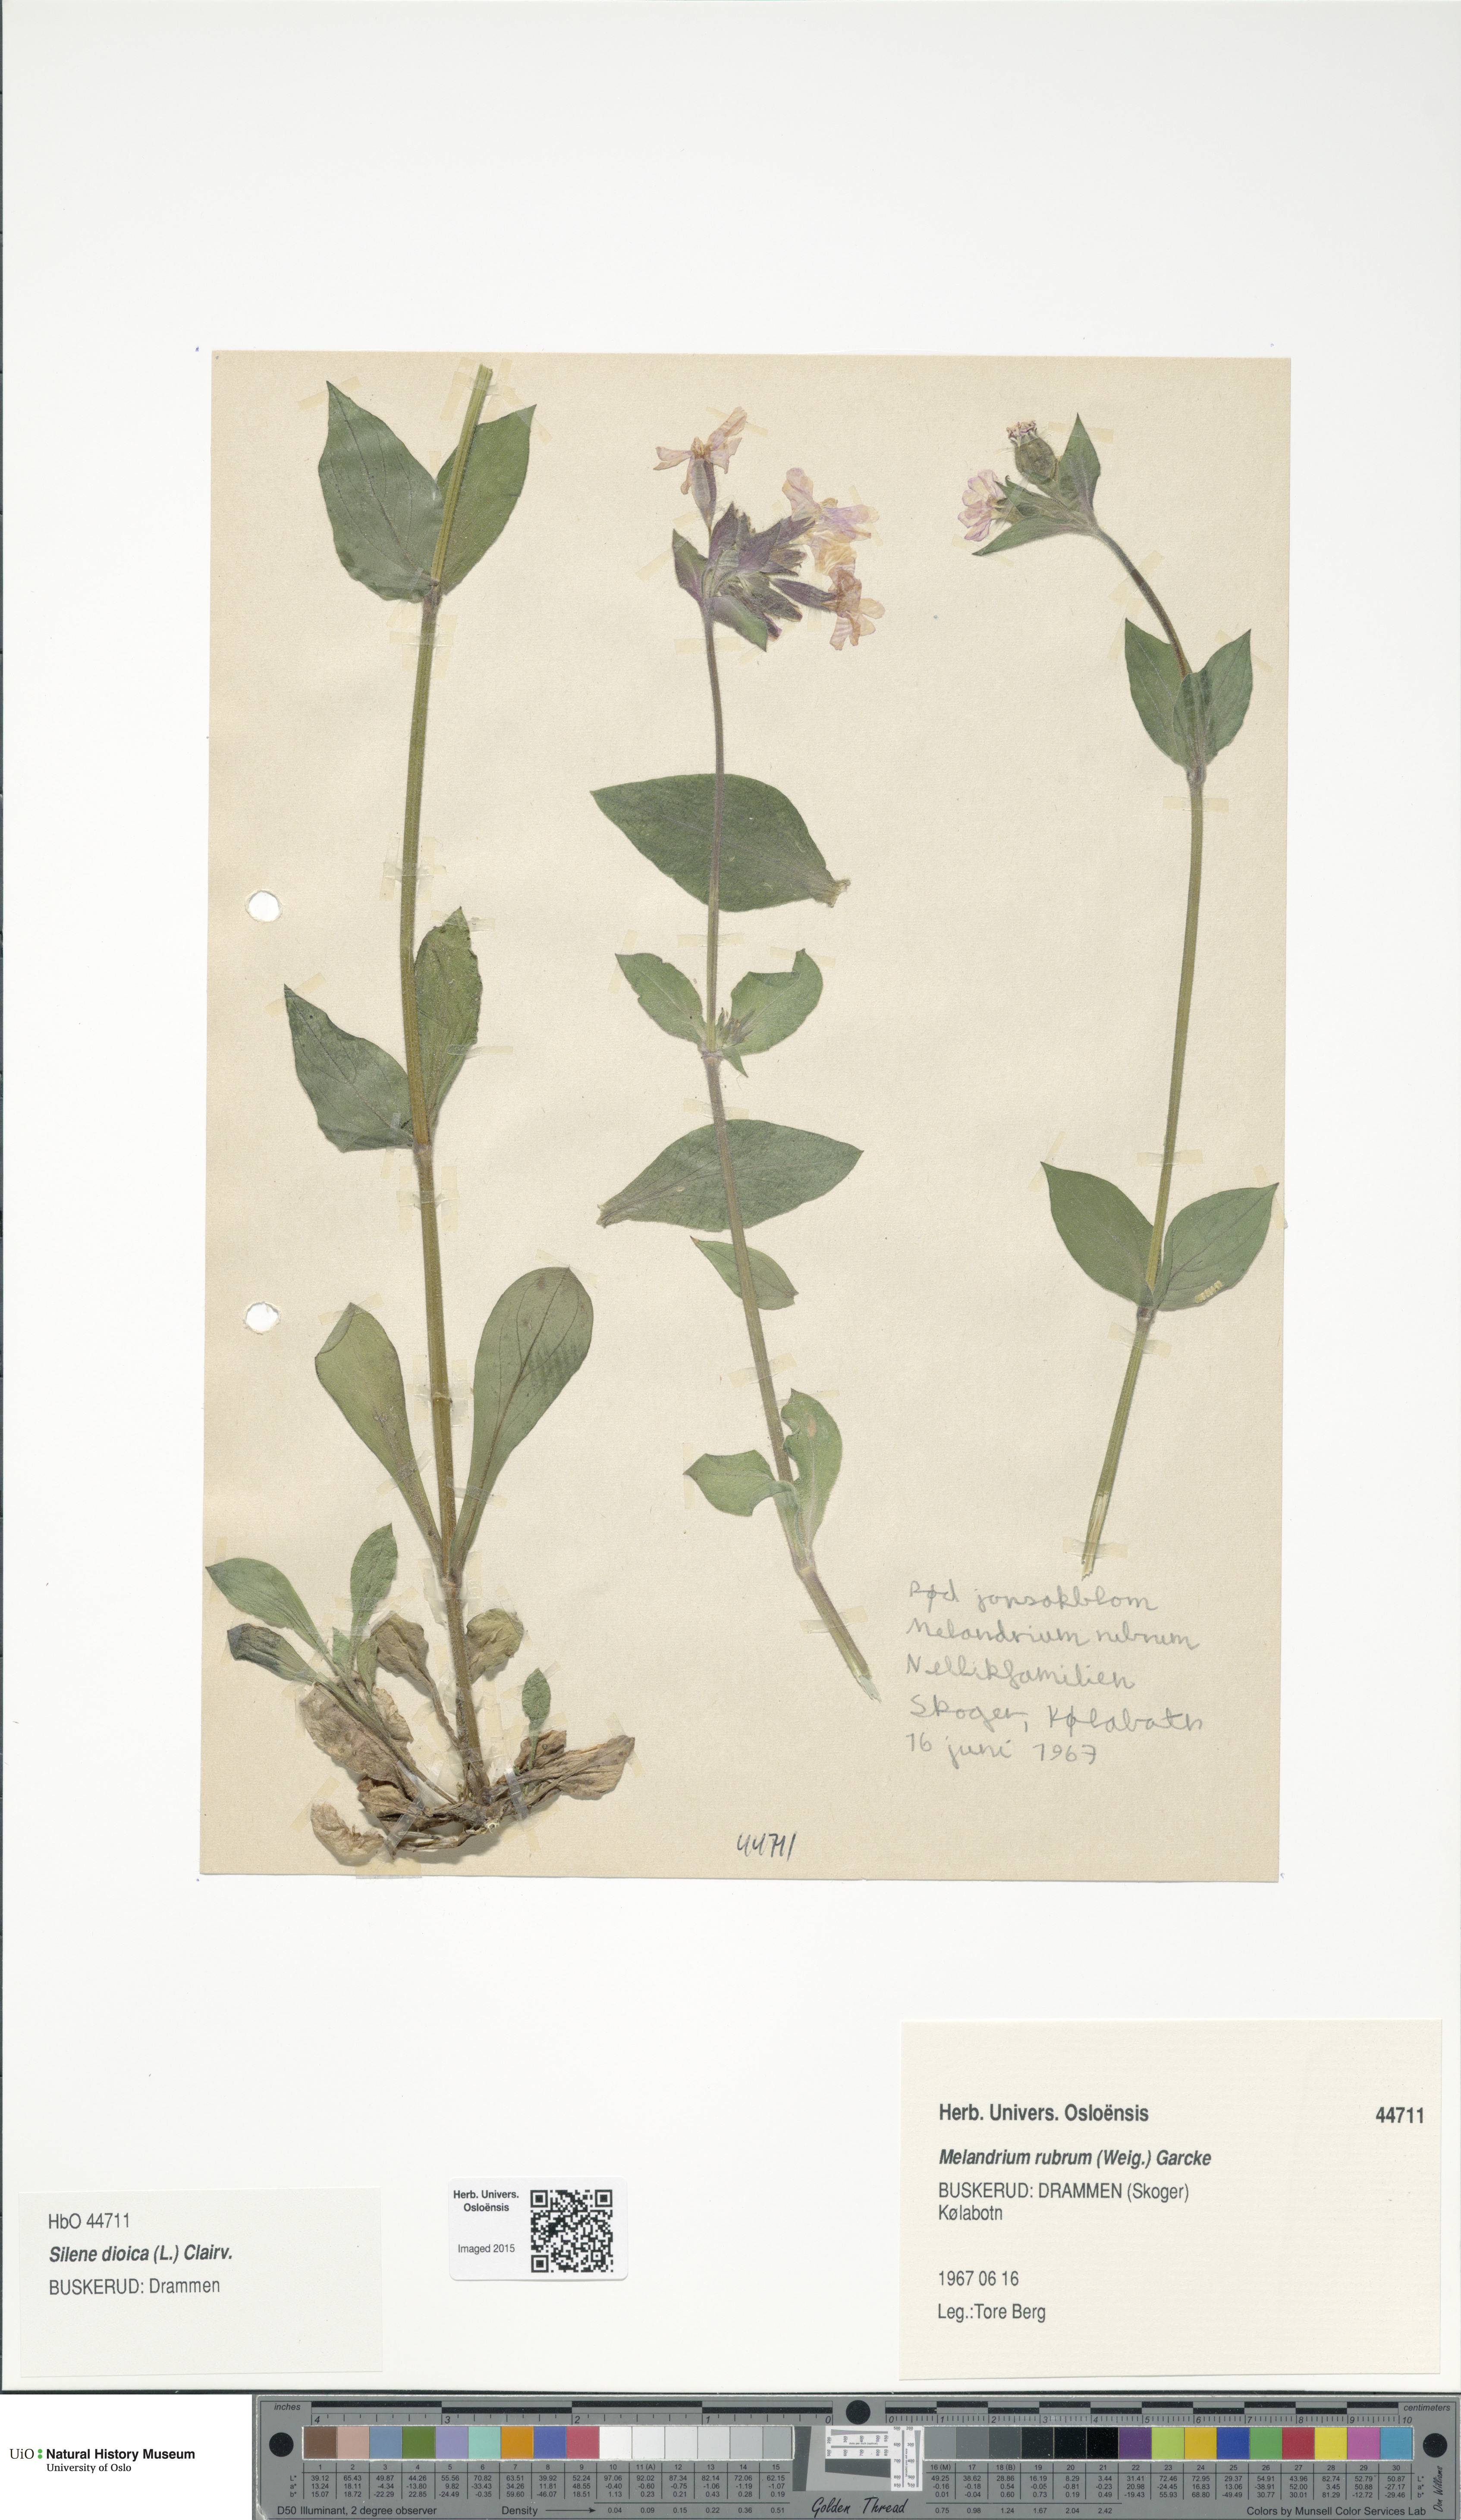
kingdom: Plantae
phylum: Tracheophyta
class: Magnoliopsida
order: Caryophyllales
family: Caryophyllaceae
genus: Silene
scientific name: Silene dioica
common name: Red campion
